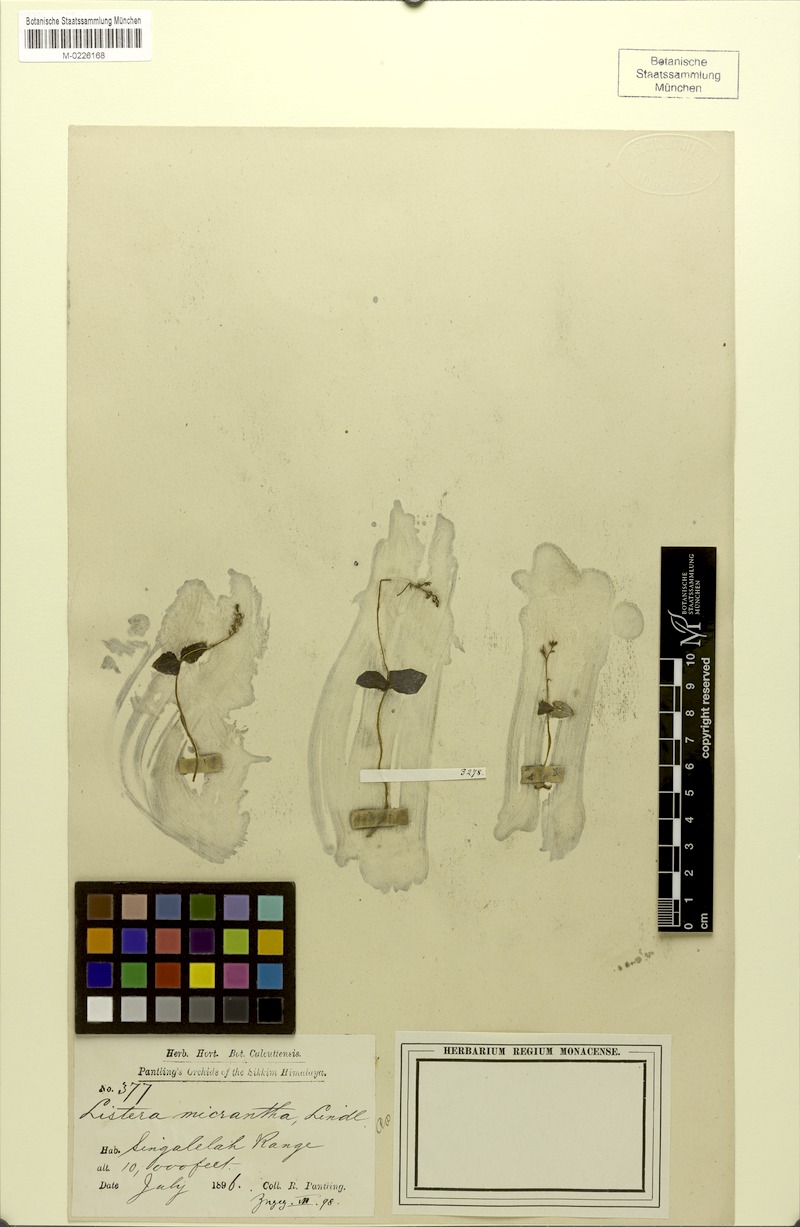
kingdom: Plantae
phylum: Tracheophyta
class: Liliopsida
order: Asparagales
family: Orchidaceae
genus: Neottia
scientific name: Neottia karoana
